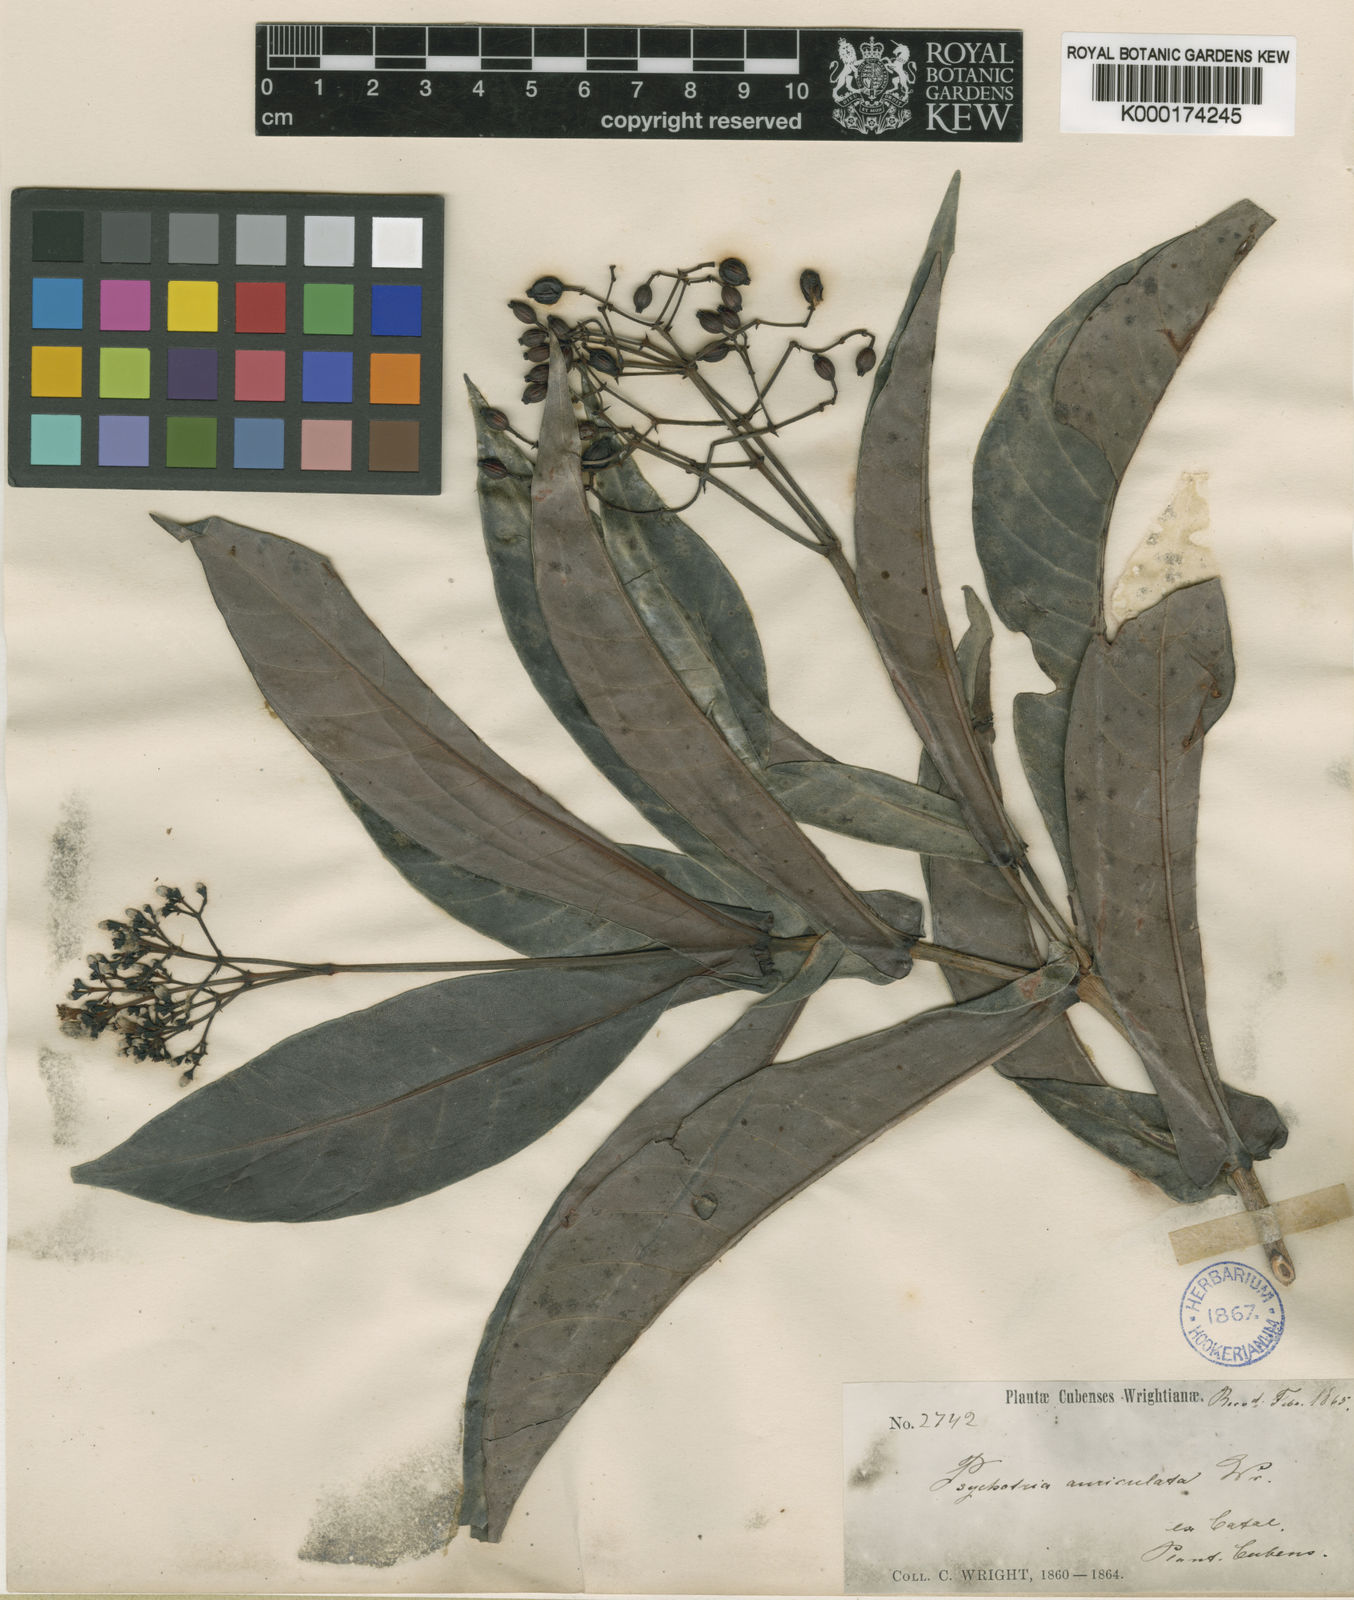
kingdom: Plantae
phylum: Tracheophyta
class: Magnoliopsida
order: Gentianales
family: Rubiaceae
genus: Psychotria
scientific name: Psychotria auriculata
